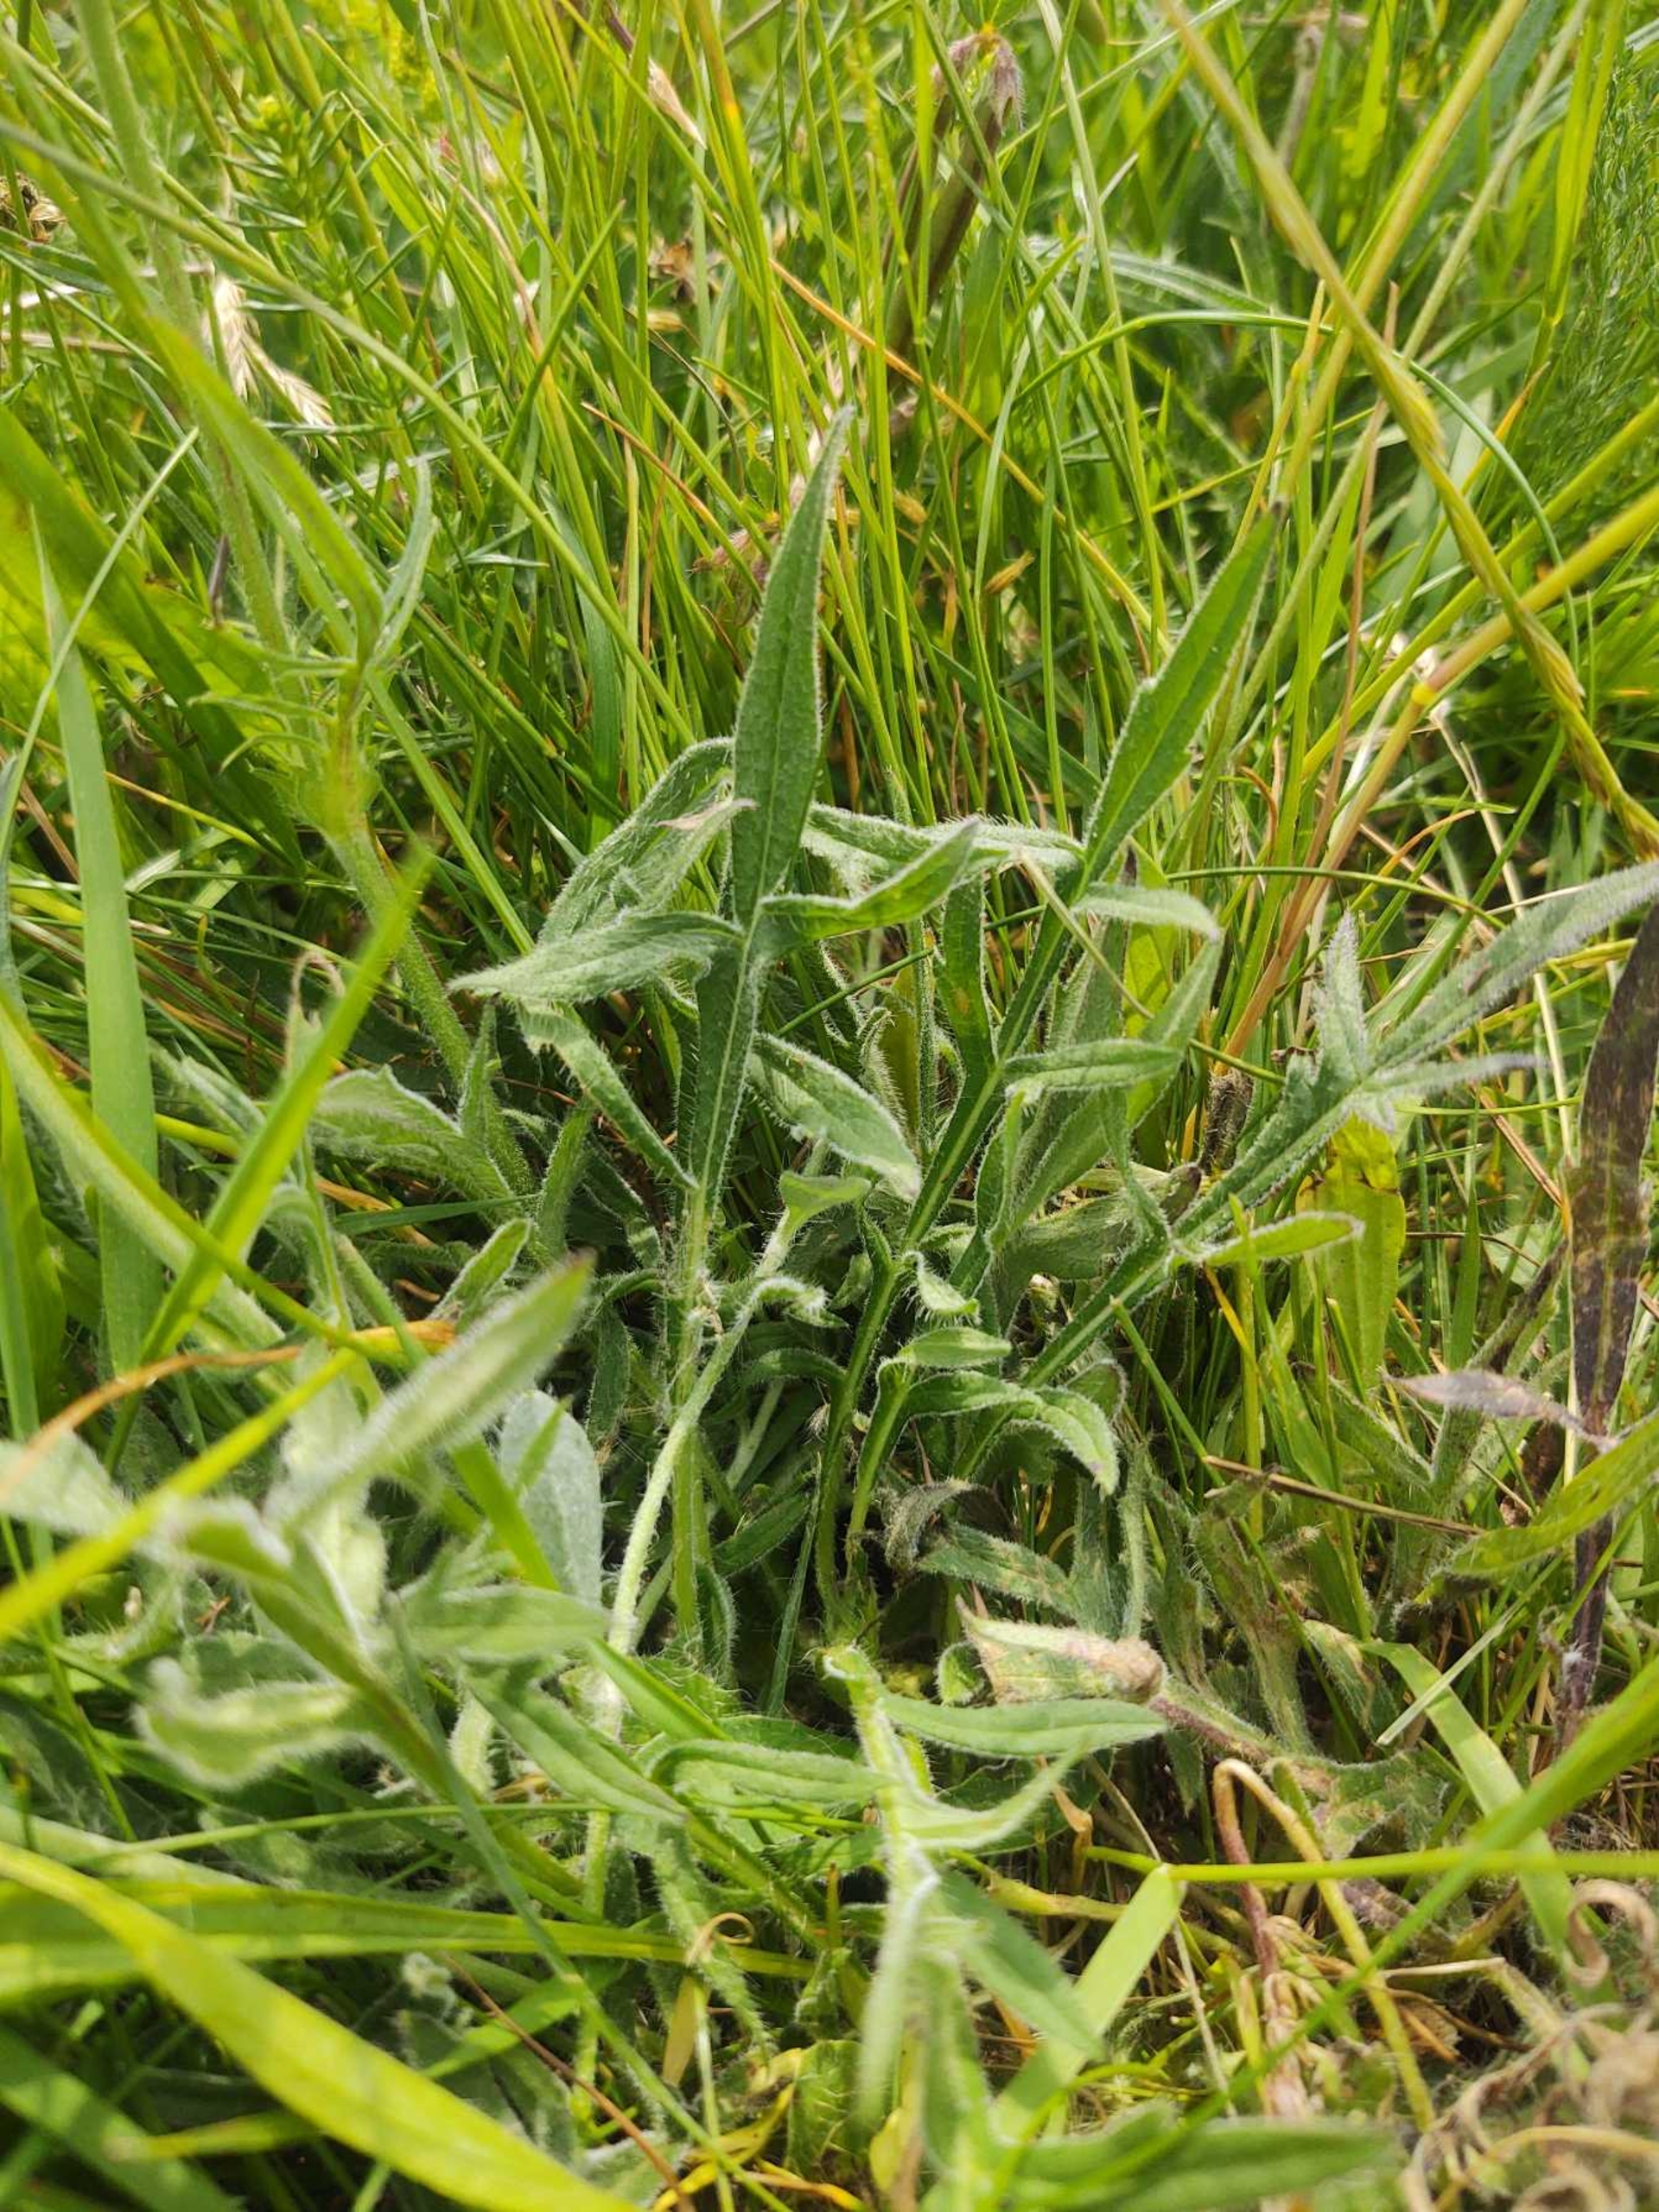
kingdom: Plantae
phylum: Tracheophyta
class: Magnoliopsida
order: Dipsacales
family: Caprifoliaceae
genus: Knautia
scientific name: Knautia arvensis
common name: Blåhat
